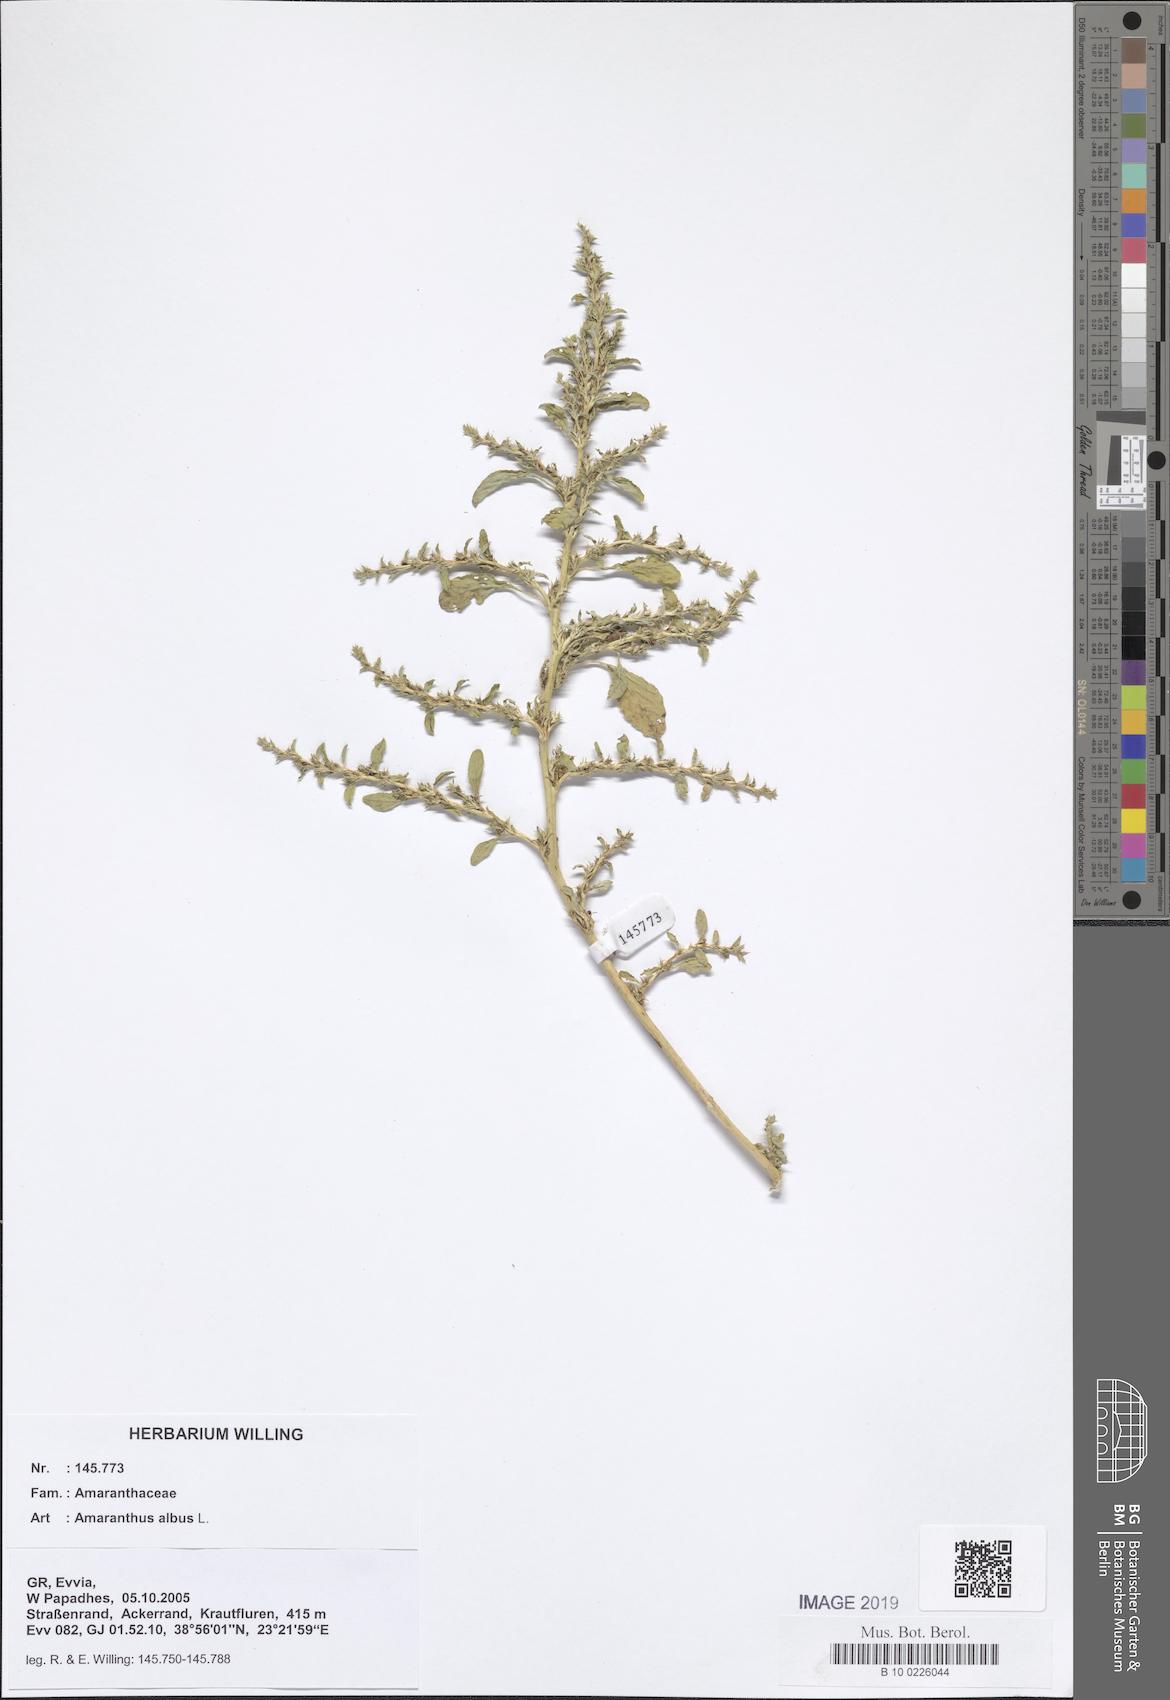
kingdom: Plantae
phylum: Tracheophyta
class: Magnoliopsida
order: Caryophyllales
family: Amaranthaceae
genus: Amaranthus
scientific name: Amaranthus albus
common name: White pigweed
